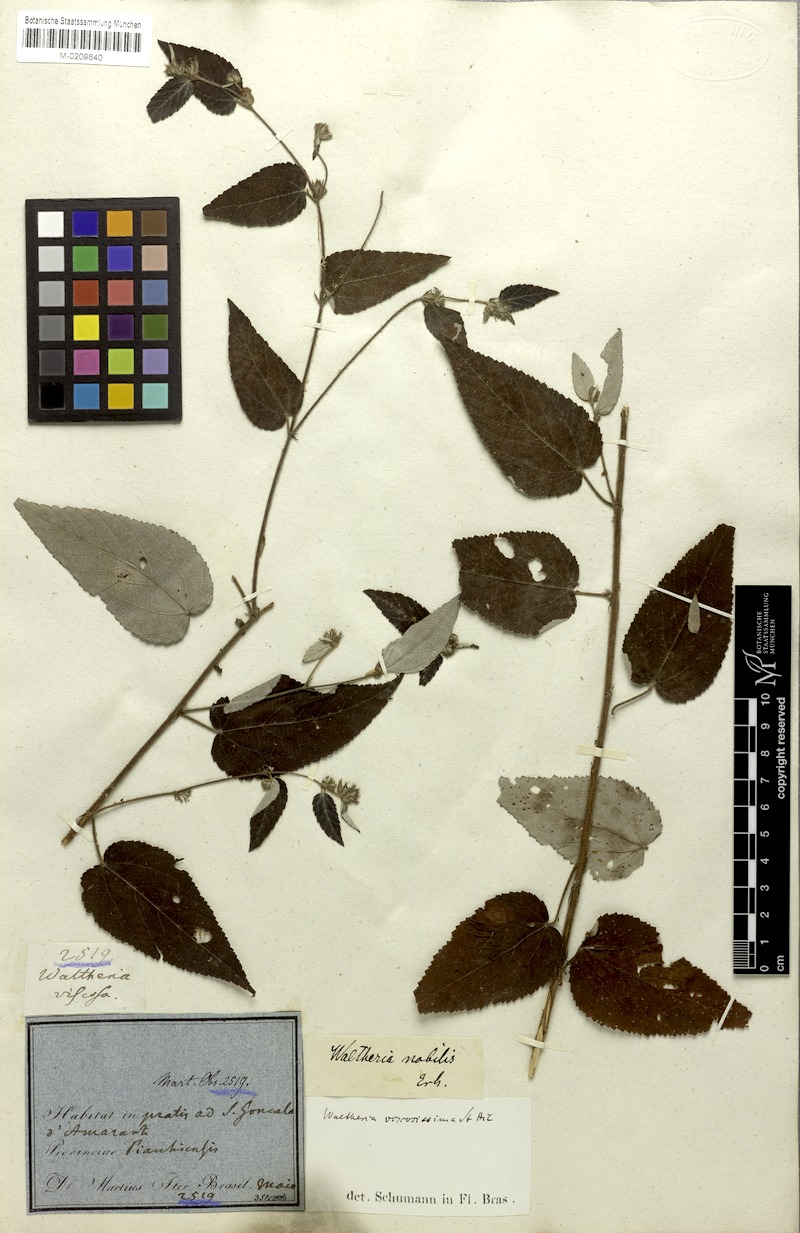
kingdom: Plantae
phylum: Tracheophyta
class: Magnoliopsida
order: Malvales
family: Malvaceae
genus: Waltheria
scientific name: Waltheria viscosissima
